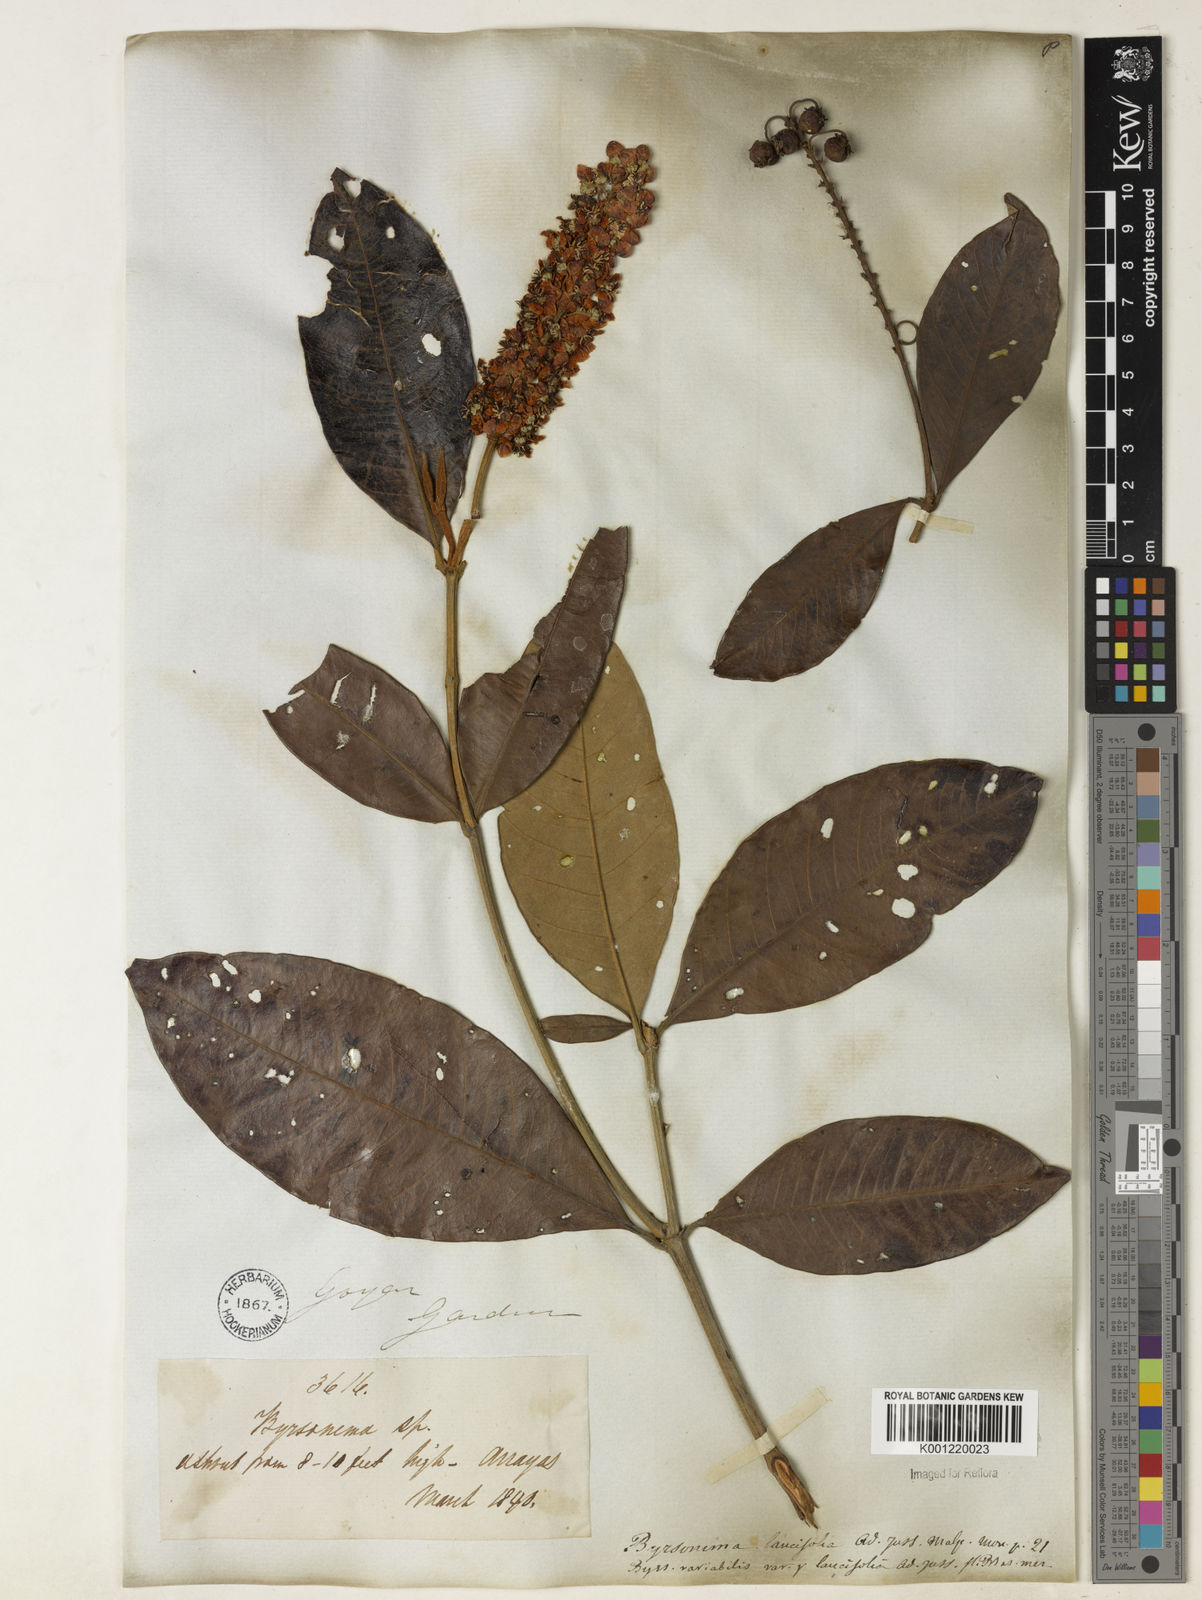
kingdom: Plantae
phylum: Tracheophyta
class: Magnoliopsida
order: Malpighiales
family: Malpighiaceae
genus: Byrsonima
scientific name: Byrsonima lancifolia
